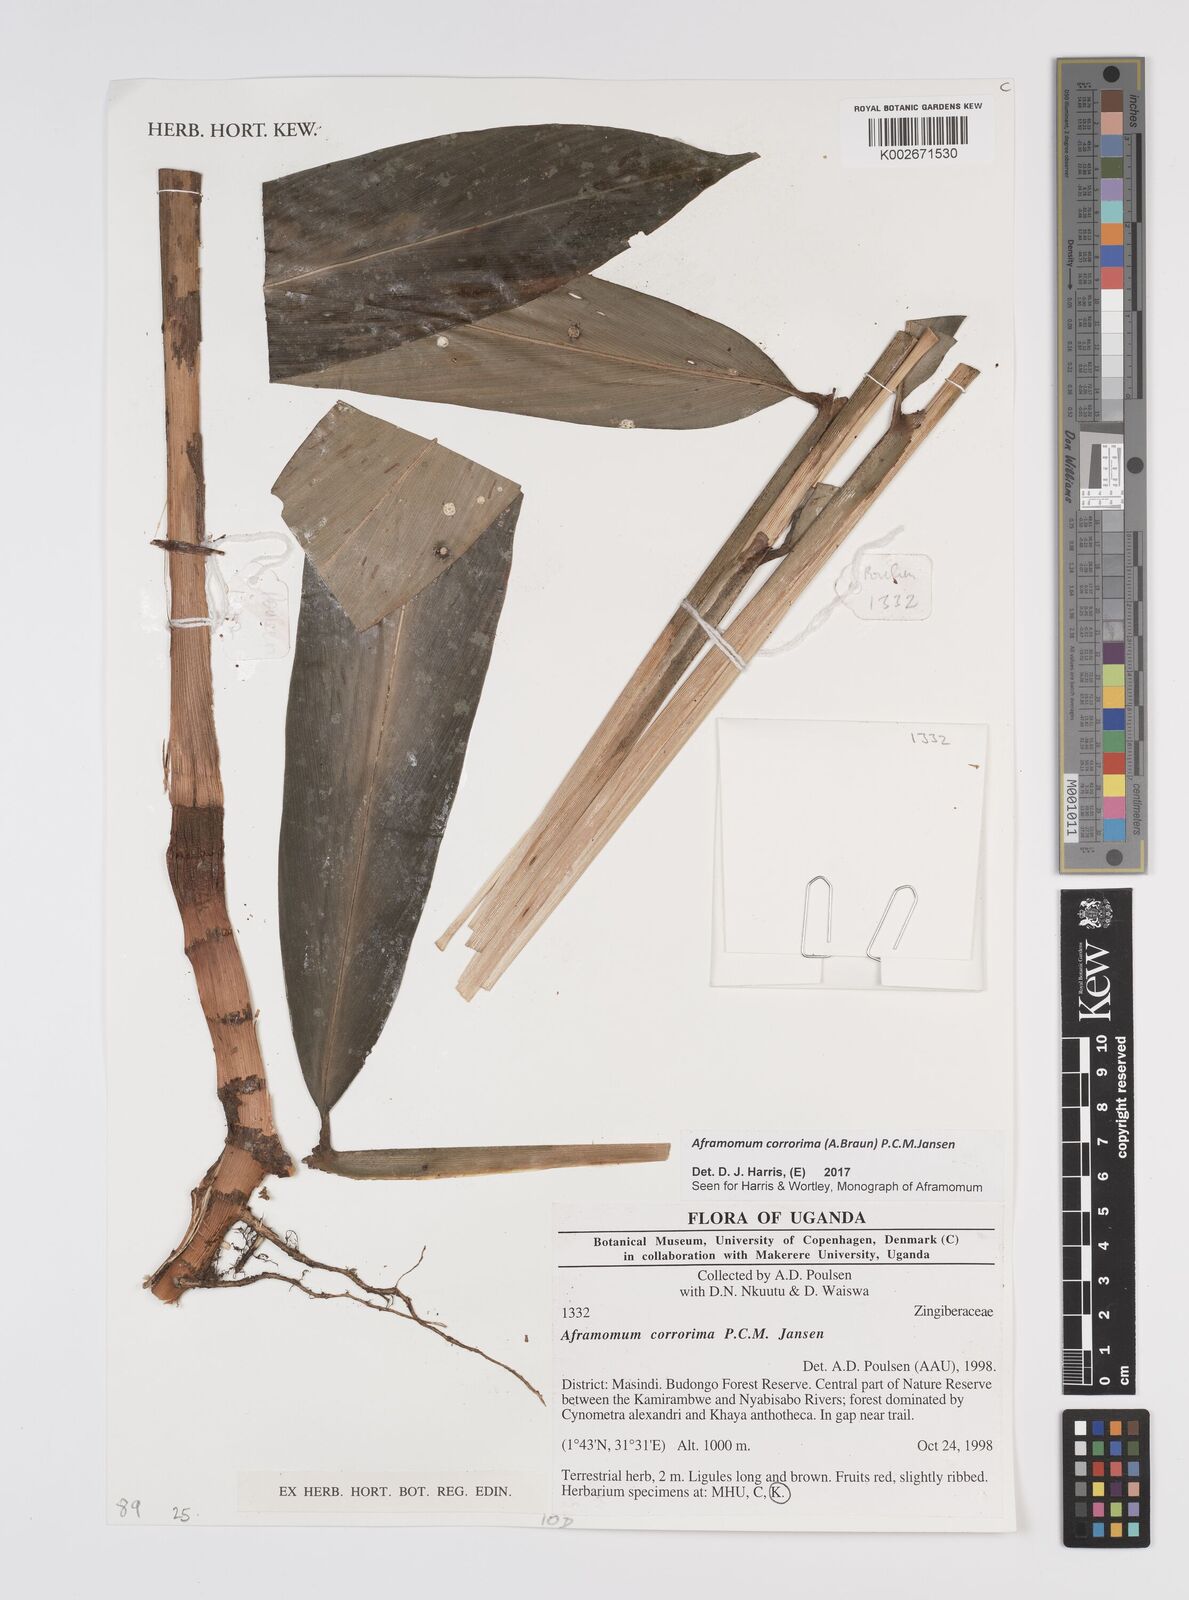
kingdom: Plantae
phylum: Tracheophyta
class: Liliopsida
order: Zingiberales
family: Zingiberaceae
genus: Aframomum
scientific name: Aframomum corrorima
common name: Ethiopian cardamom
